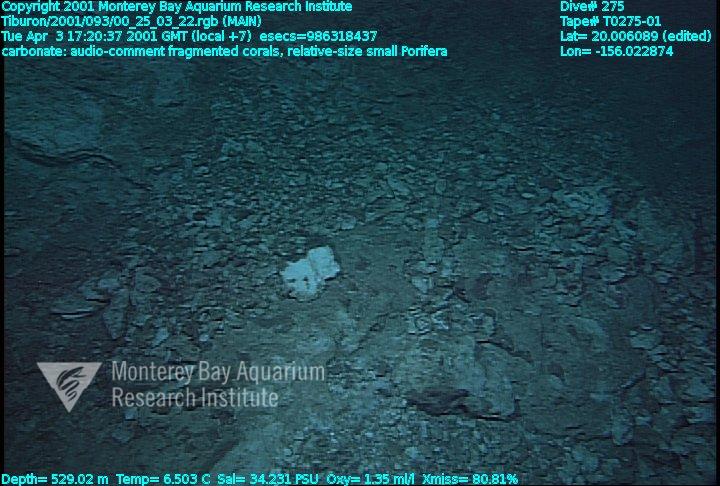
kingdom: Animalia
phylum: Porifera
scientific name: Porifera
